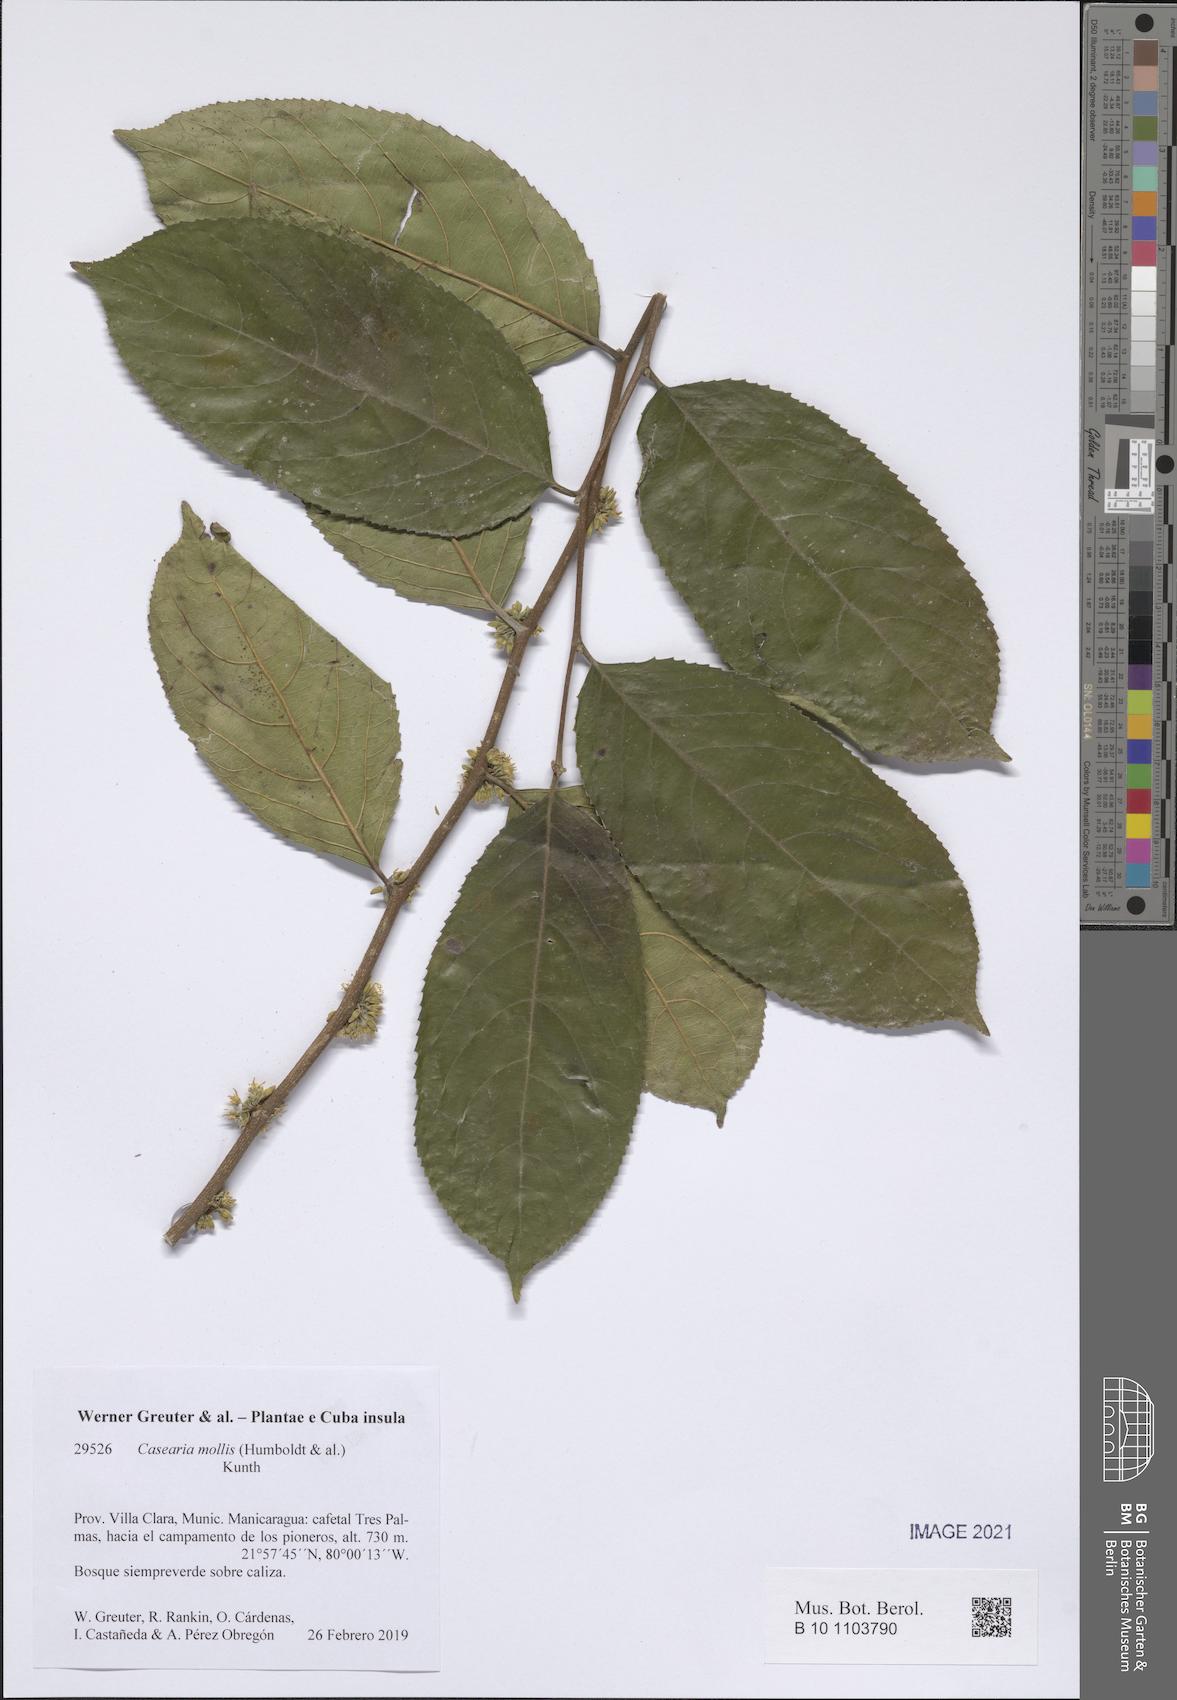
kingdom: Plantae
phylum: Tracheophyta
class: Magnoliopsida
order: Malpighiales
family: Salicaceae
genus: Casearia
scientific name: Casearia mollis
